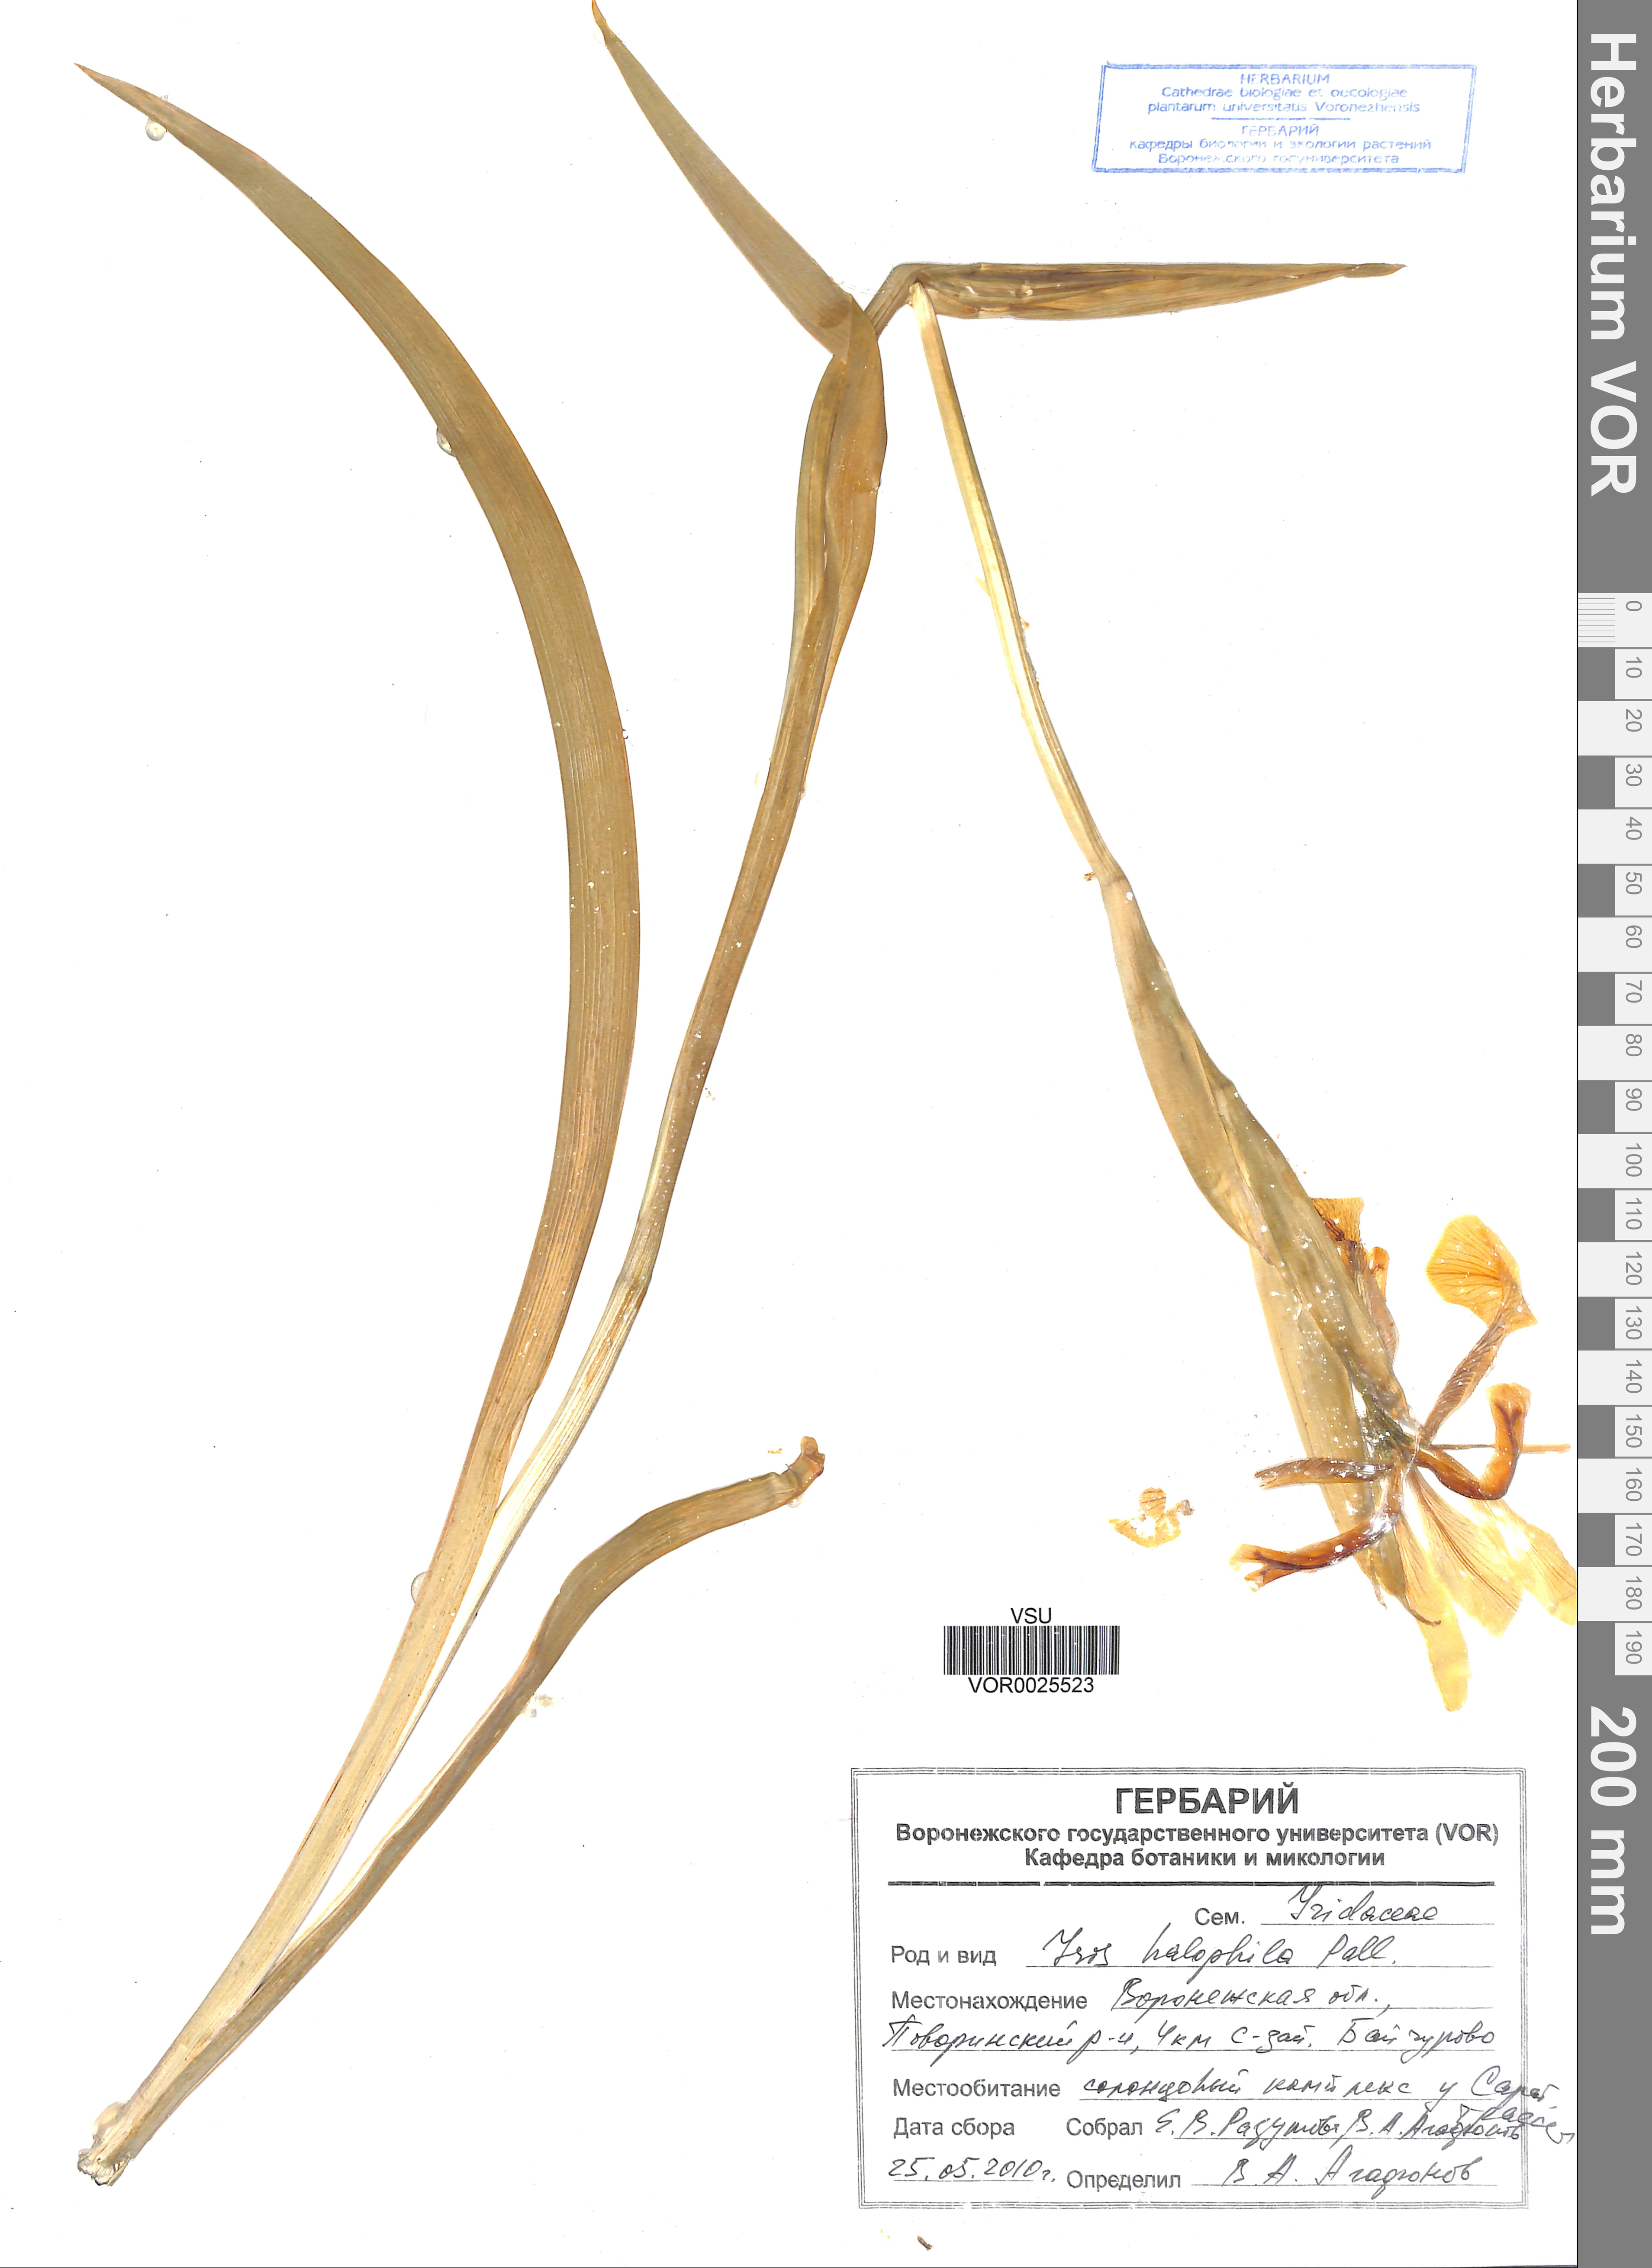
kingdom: Plantae
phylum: Tracheophyta
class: Liliopsida
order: Asparagales
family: Iridaceae
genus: Iris
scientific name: Iris halophila
